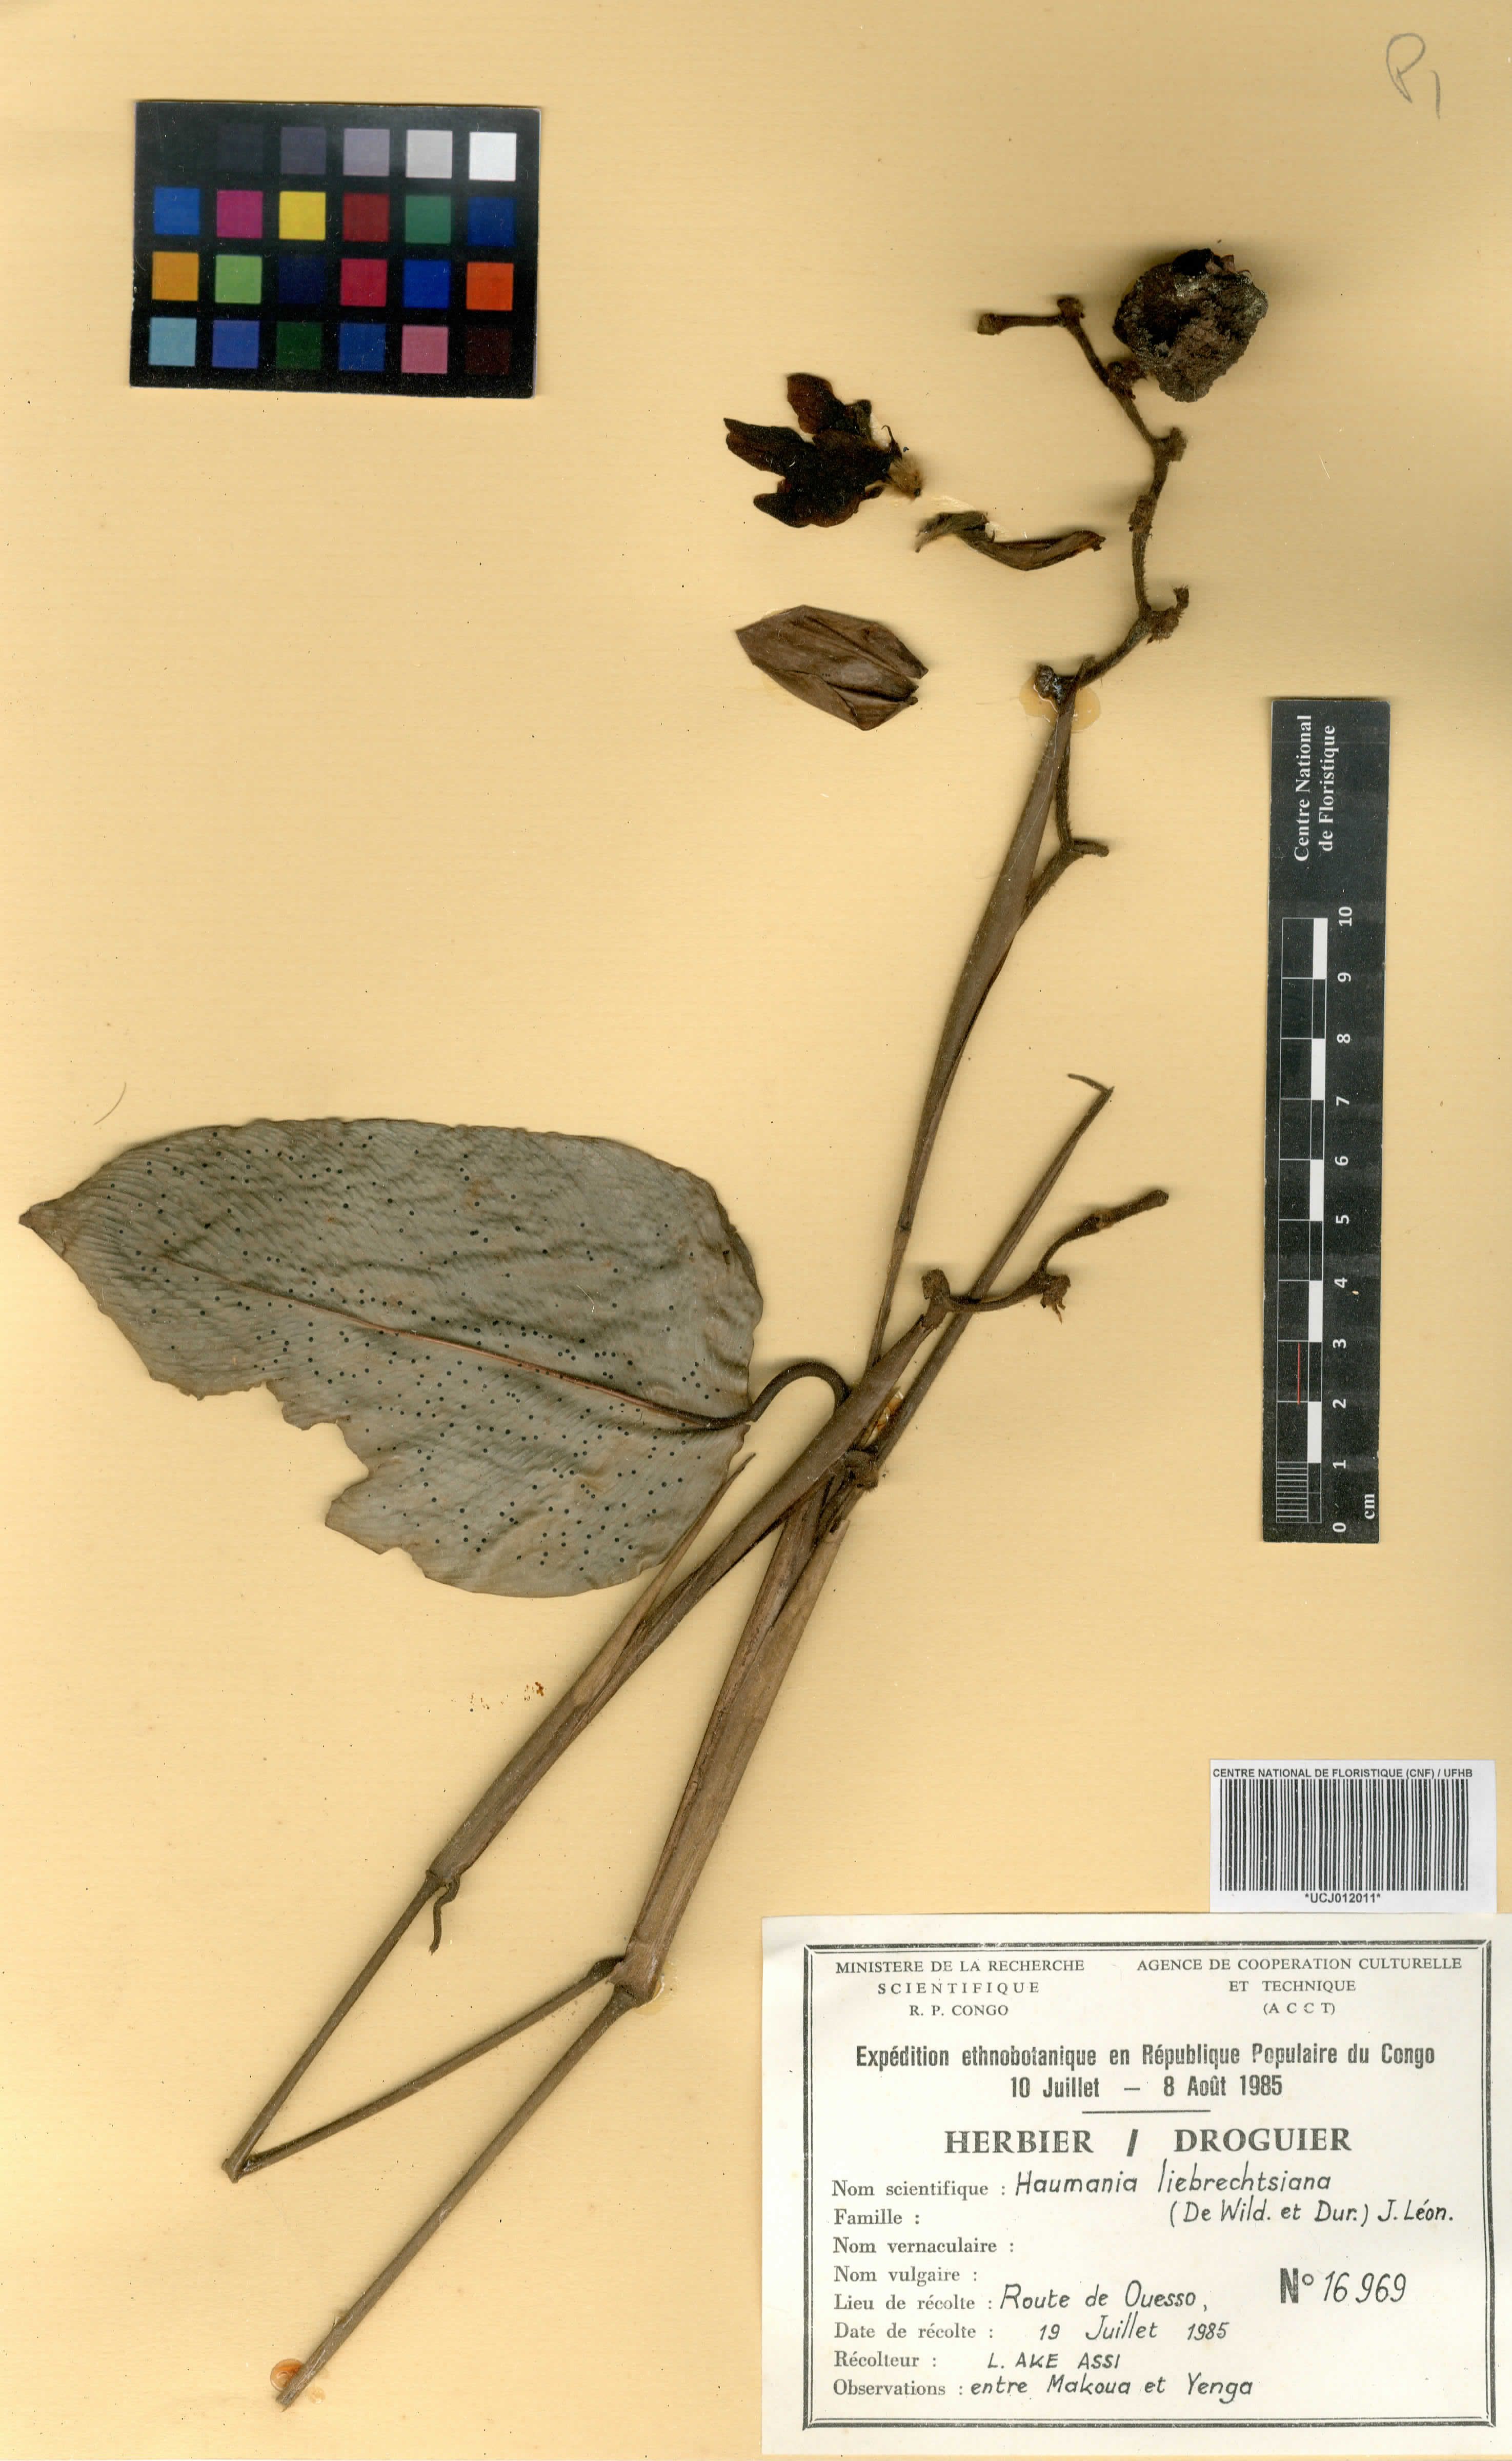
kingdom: Plantae
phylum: Tracheophyta
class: Liliopsida
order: Zingiberales
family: Marantaceae
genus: Haumania
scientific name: Haumania liebrechtsiana
